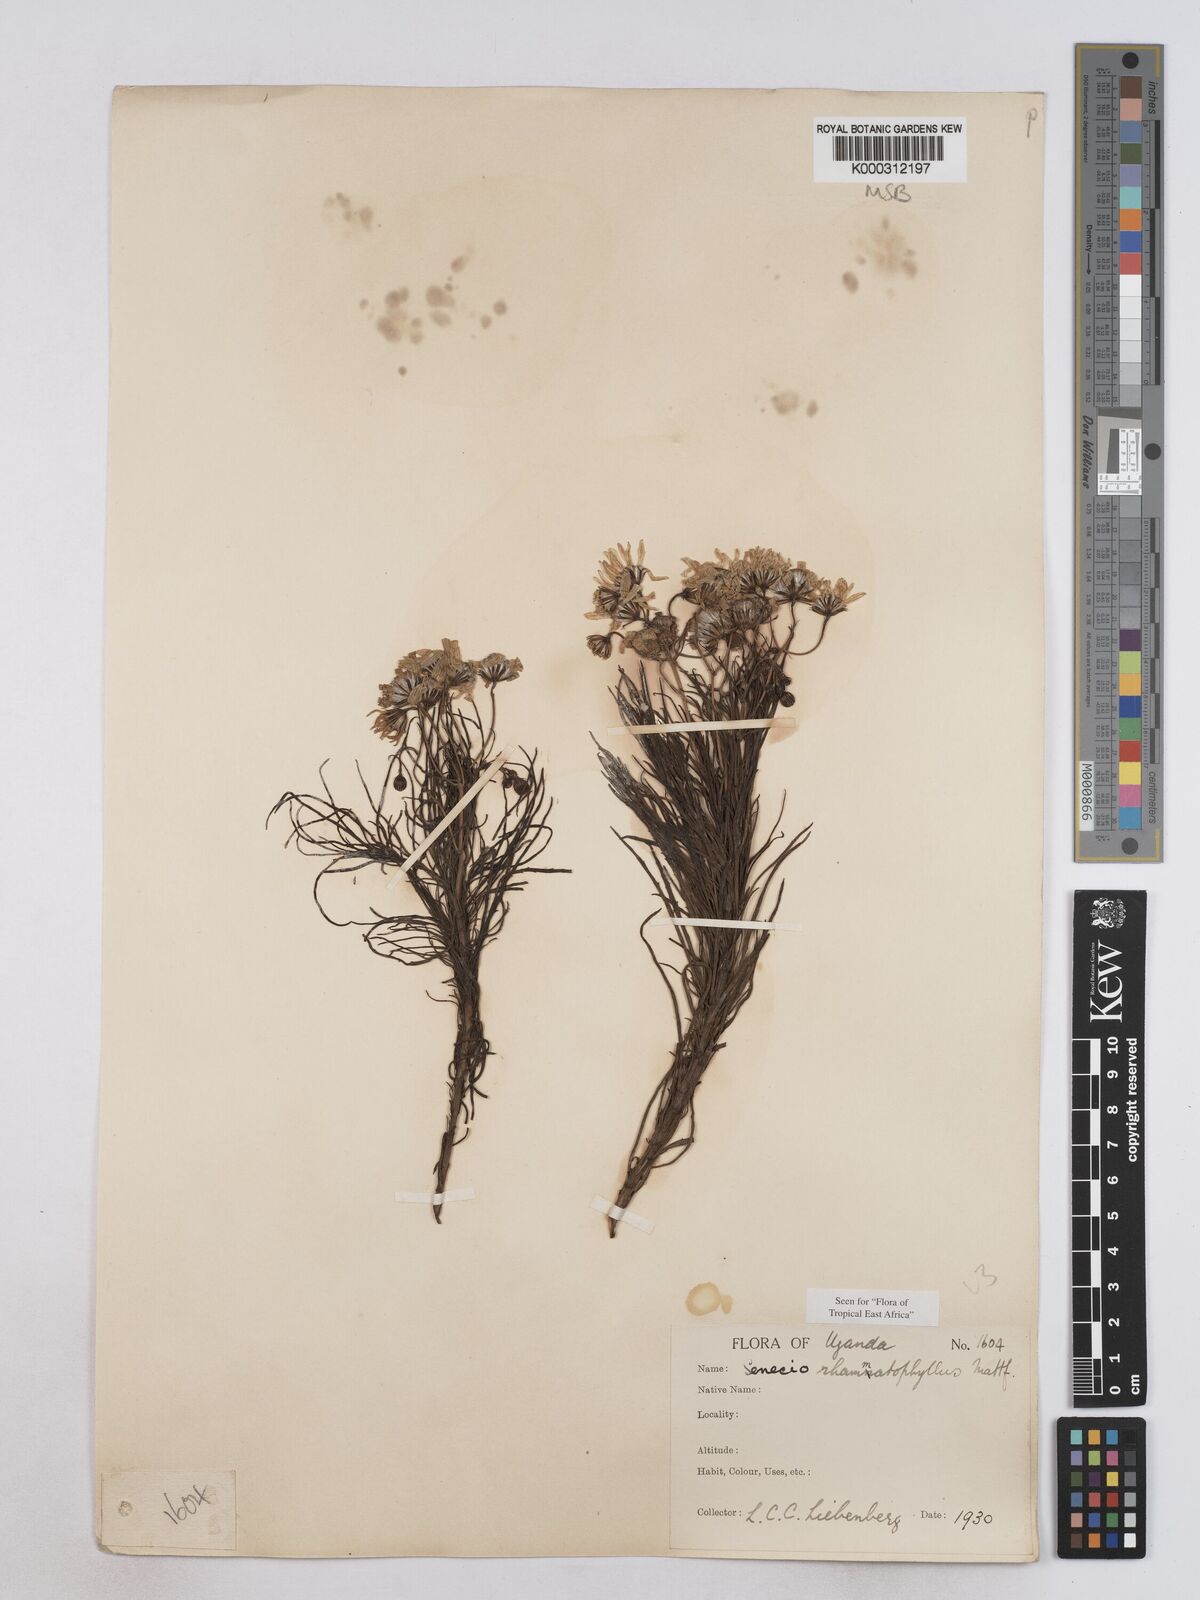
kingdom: Plantae
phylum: Tracheophyta
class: Magnoliopsida
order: Asterales
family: Asteraceae
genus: Senecio
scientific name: Senecio rhammatophyllus
